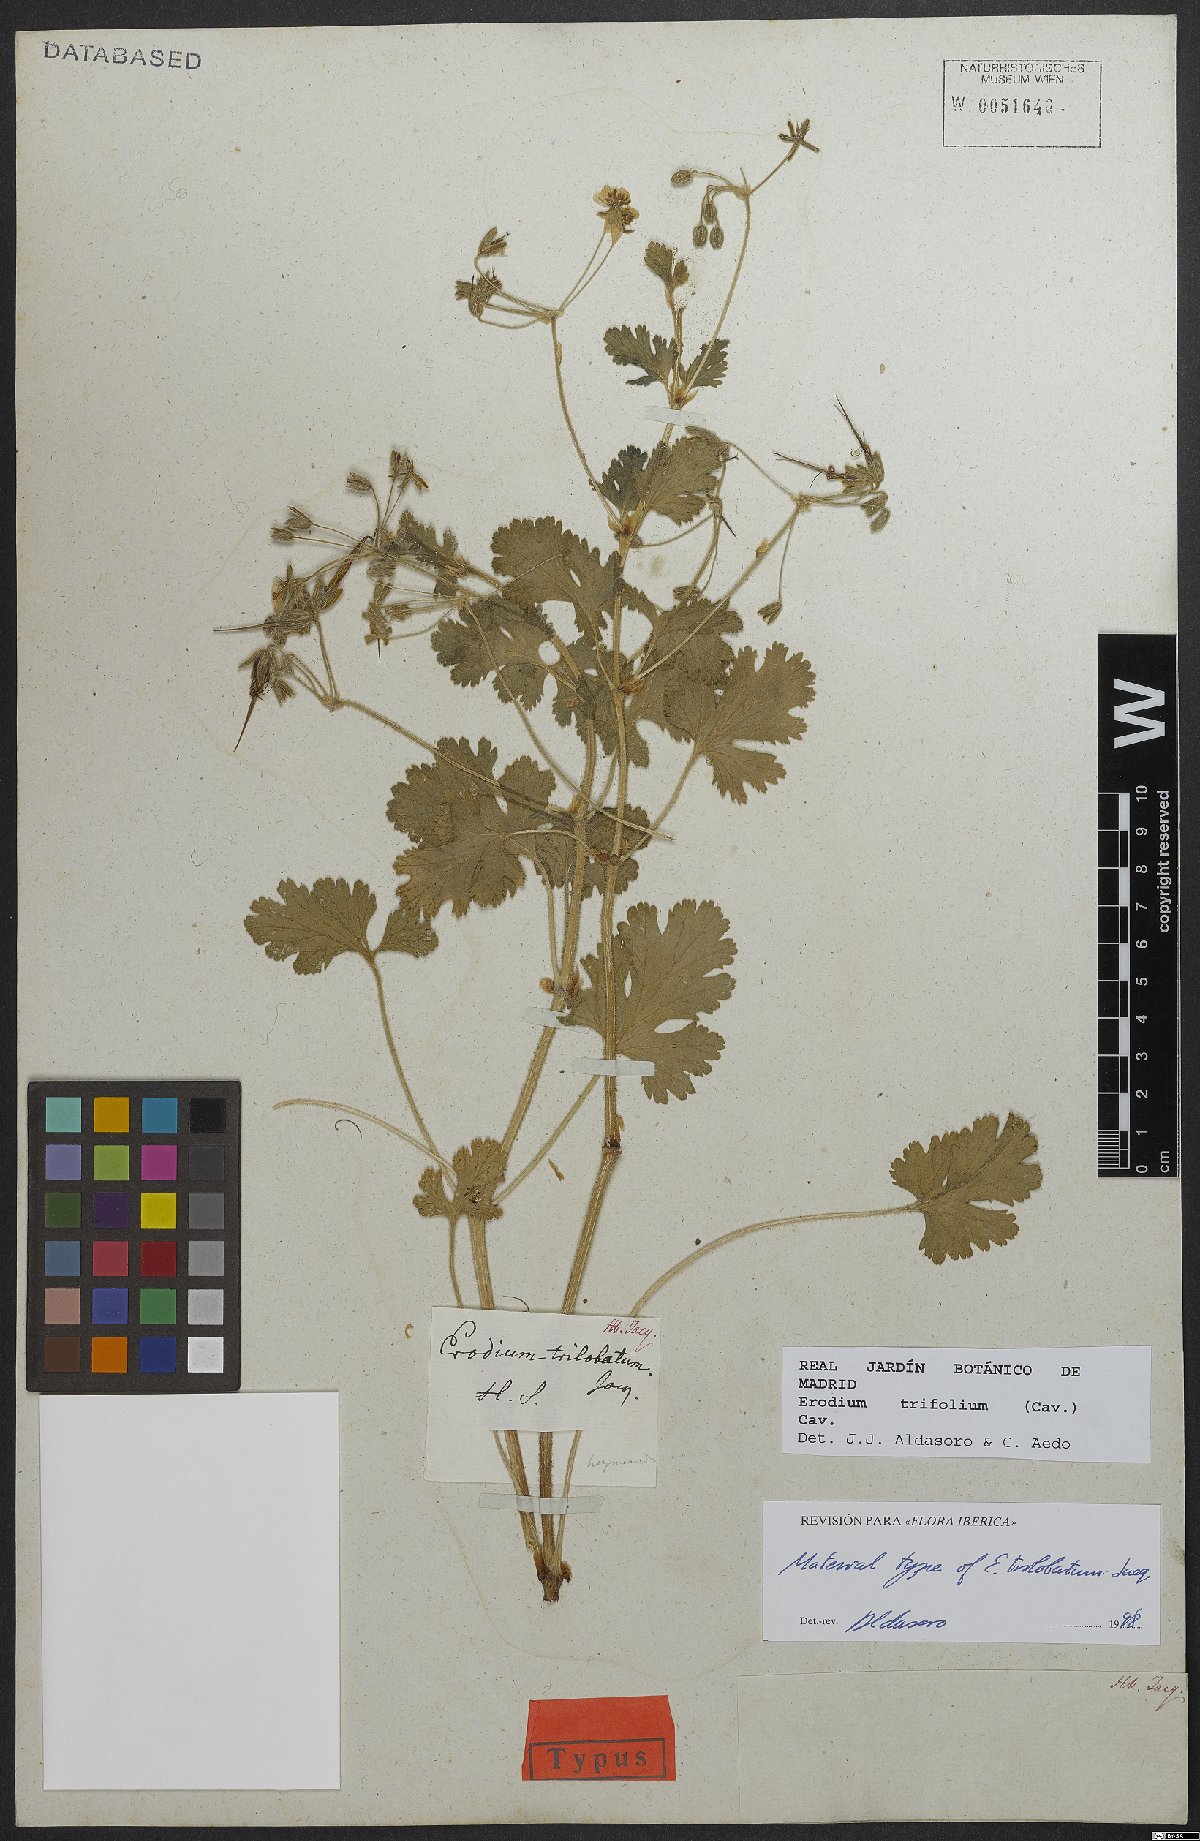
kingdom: Plantae
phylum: Tracheophyta
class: Magnoliopsida
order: Geraniales
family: Geraniaceae
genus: Erodium
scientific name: Erodium trifolium
